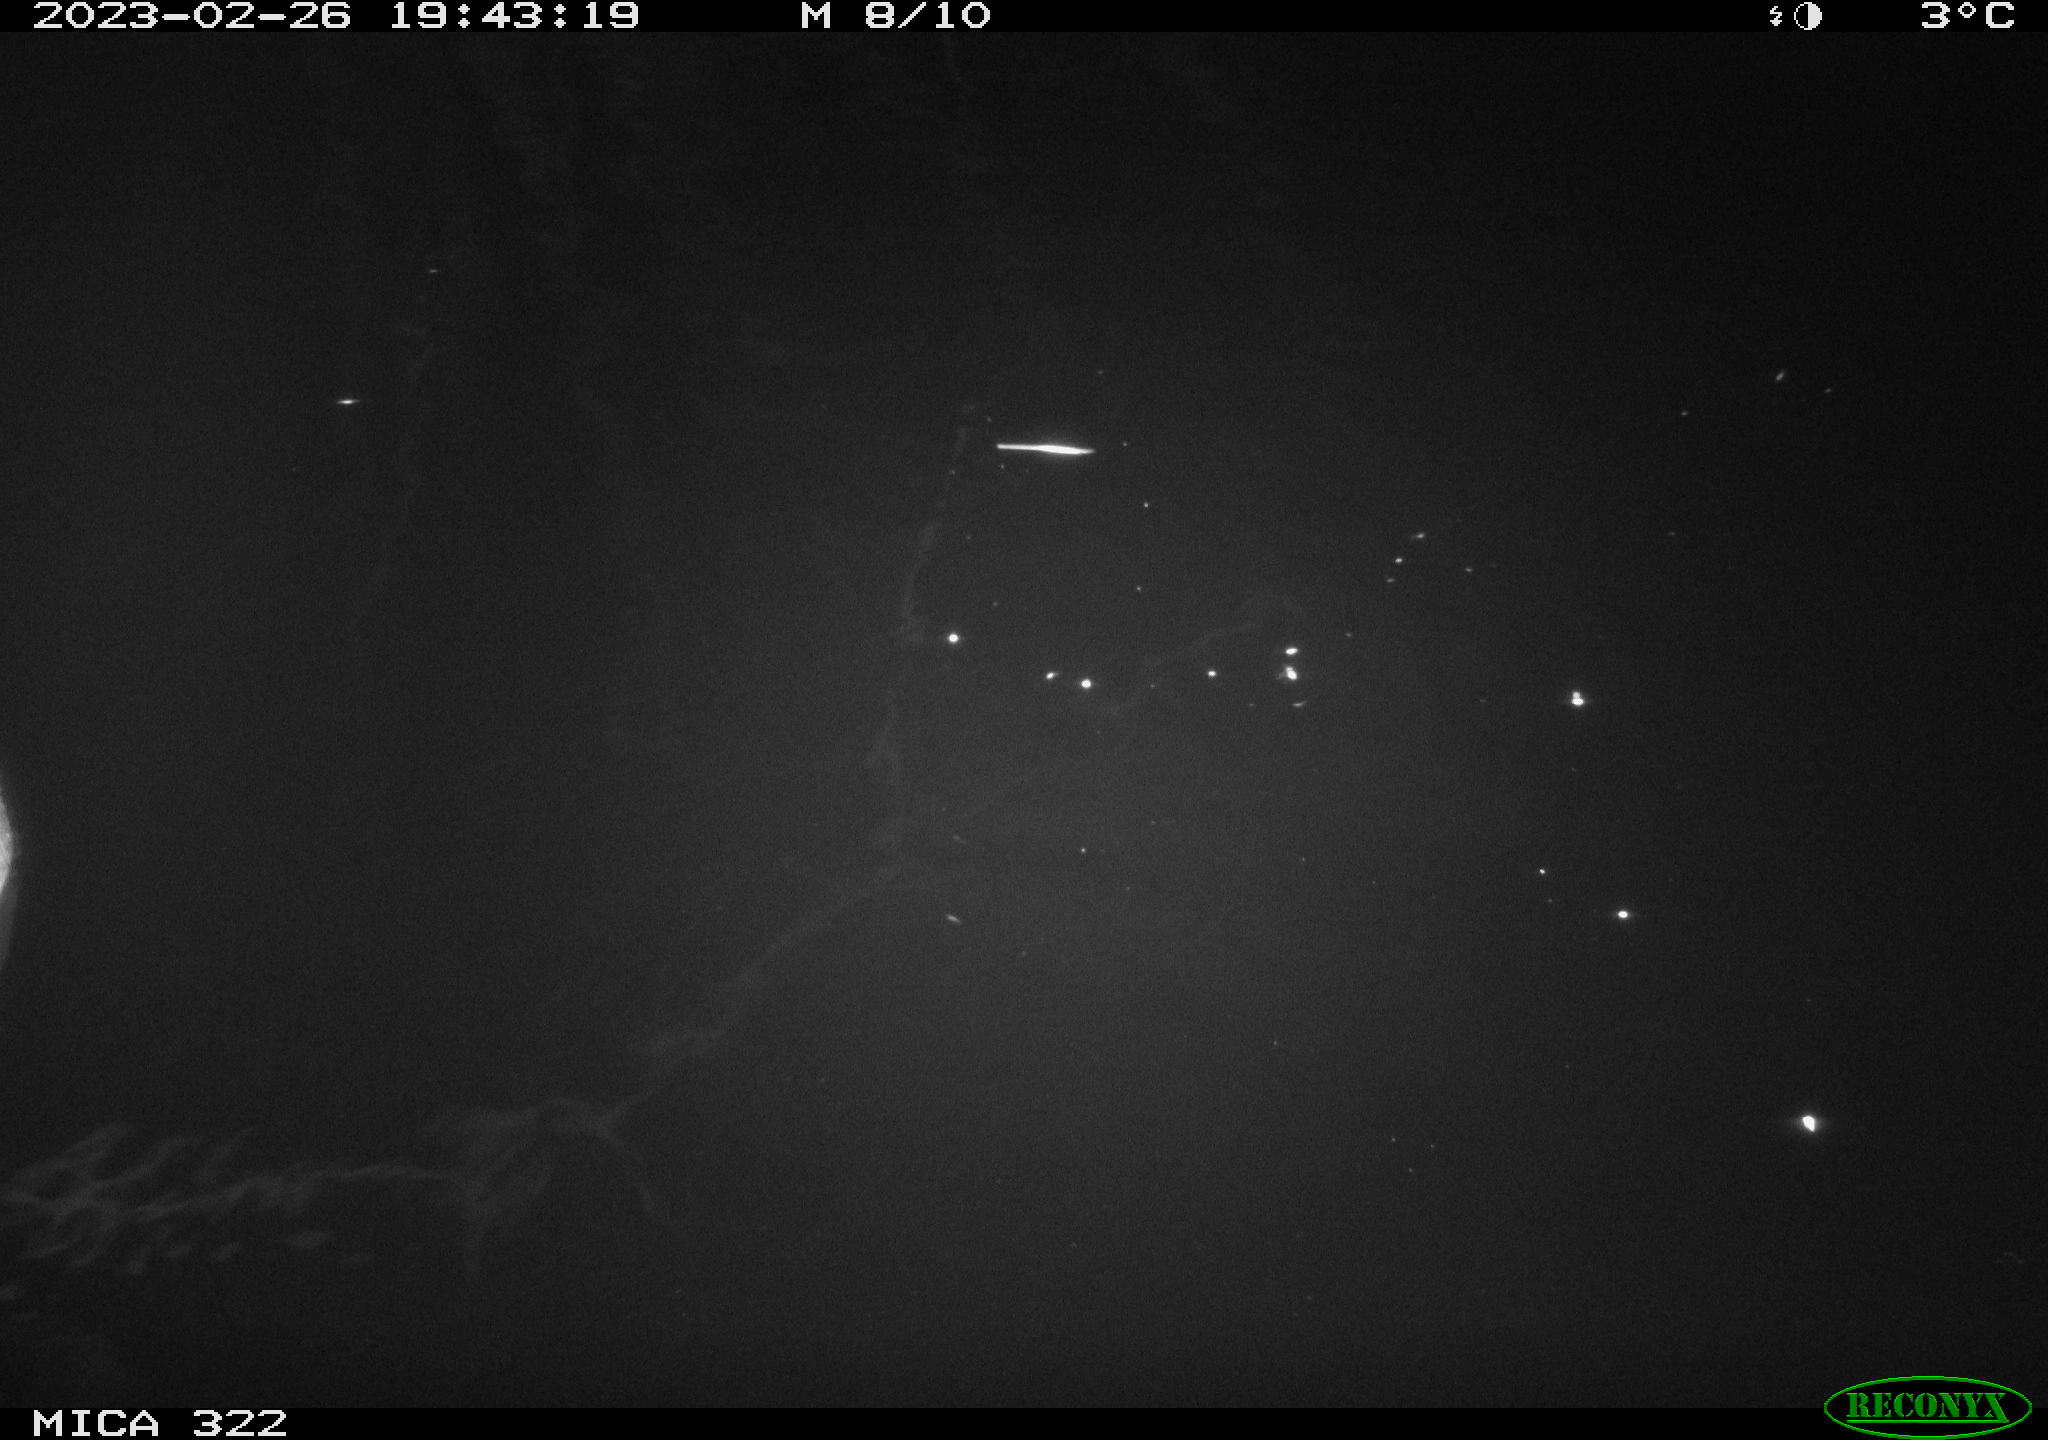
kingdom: Animalia
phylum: Chordata
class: Aves
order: Anseriformes
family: Anatidae
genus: Anas
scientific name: Anas
